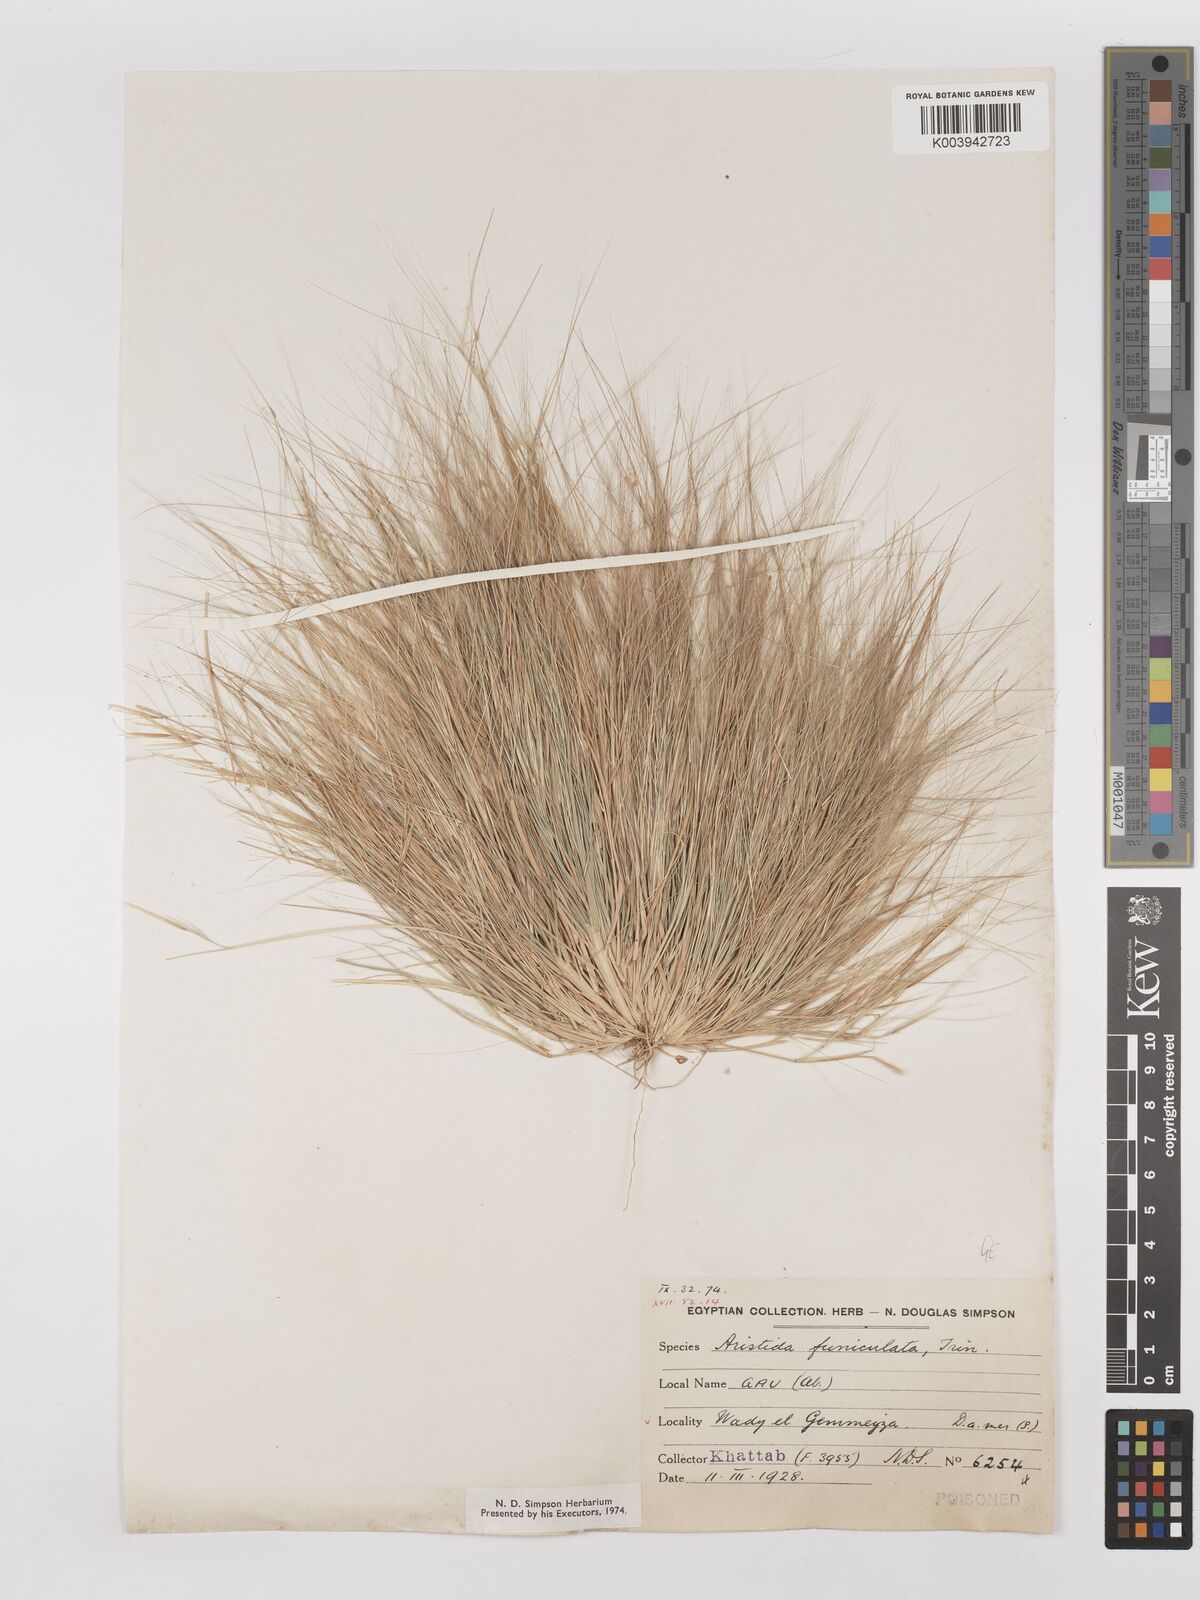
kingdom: Plantae
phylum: Tracheophyta
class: Liliopsida
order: Poales
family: Poaceae
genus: Aristida
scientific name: Aristida funiculata
